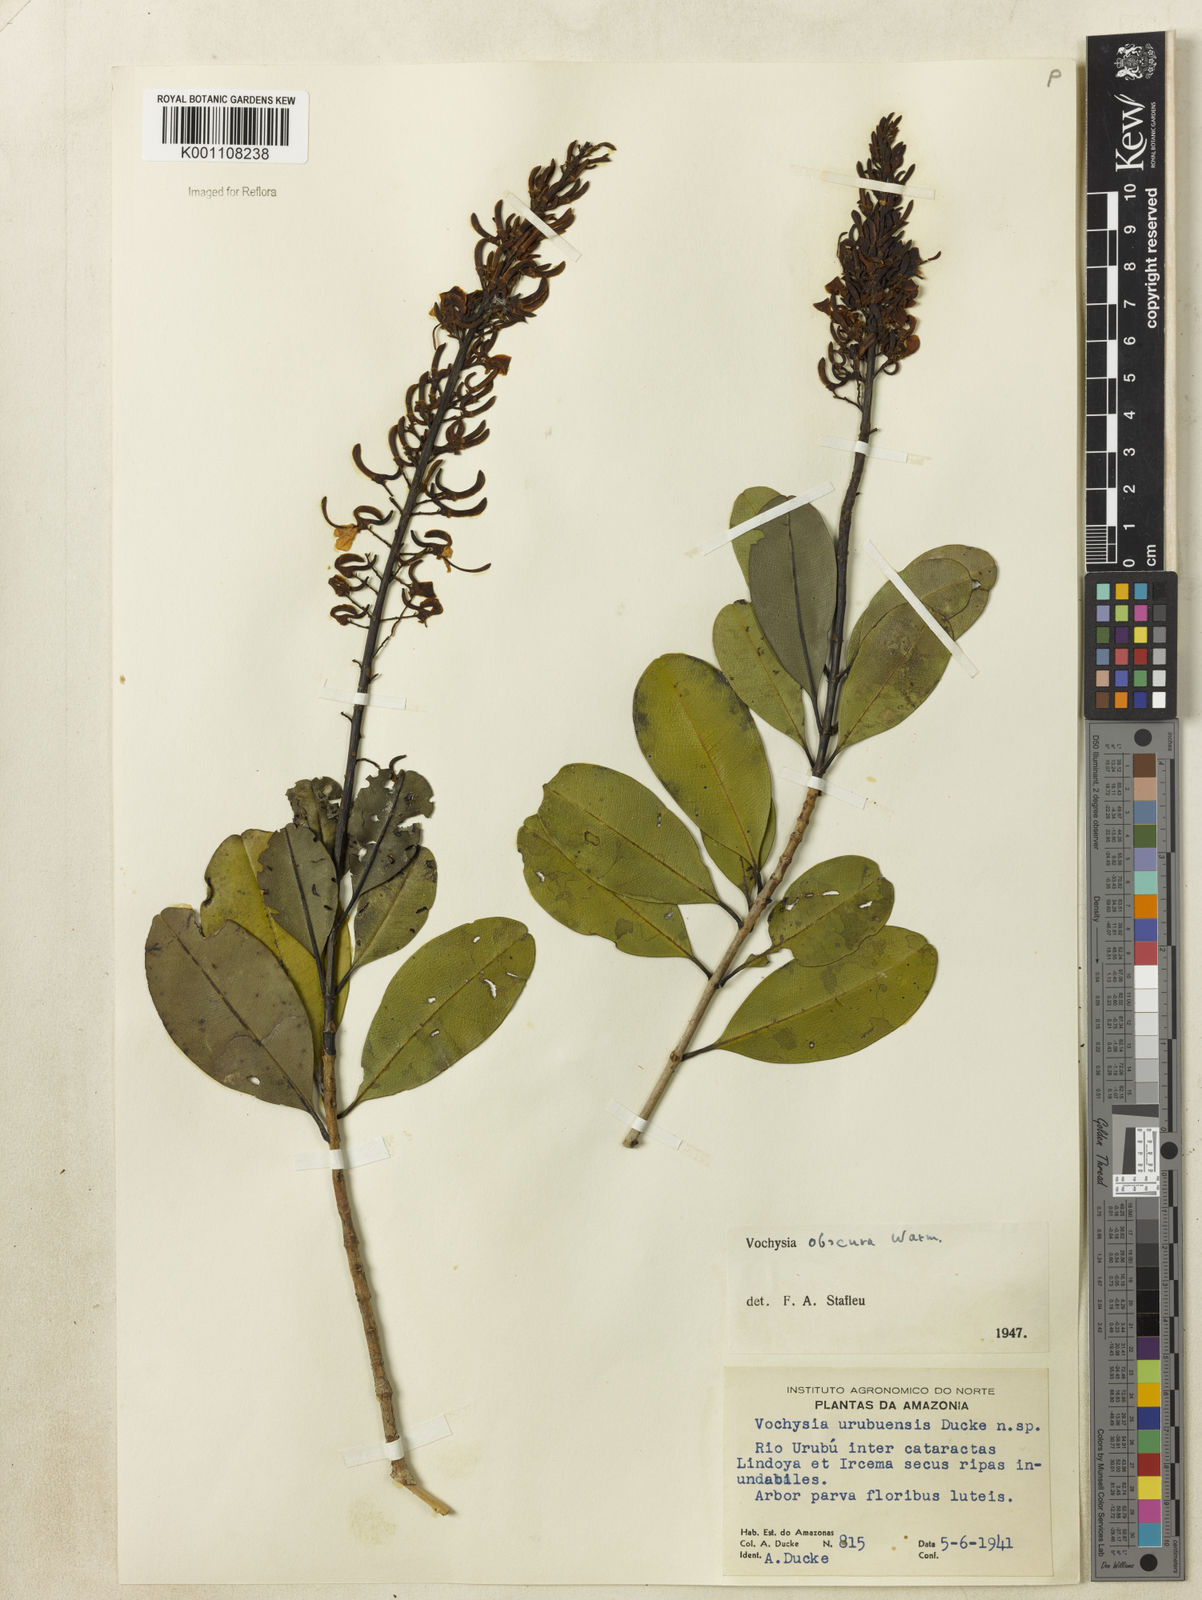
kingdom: Plantae
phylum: Tracheophyta
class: Magnoliopsida
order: Myrtales
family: Vochysiaceae
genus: Vochysia
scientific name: Vochysia obscura
